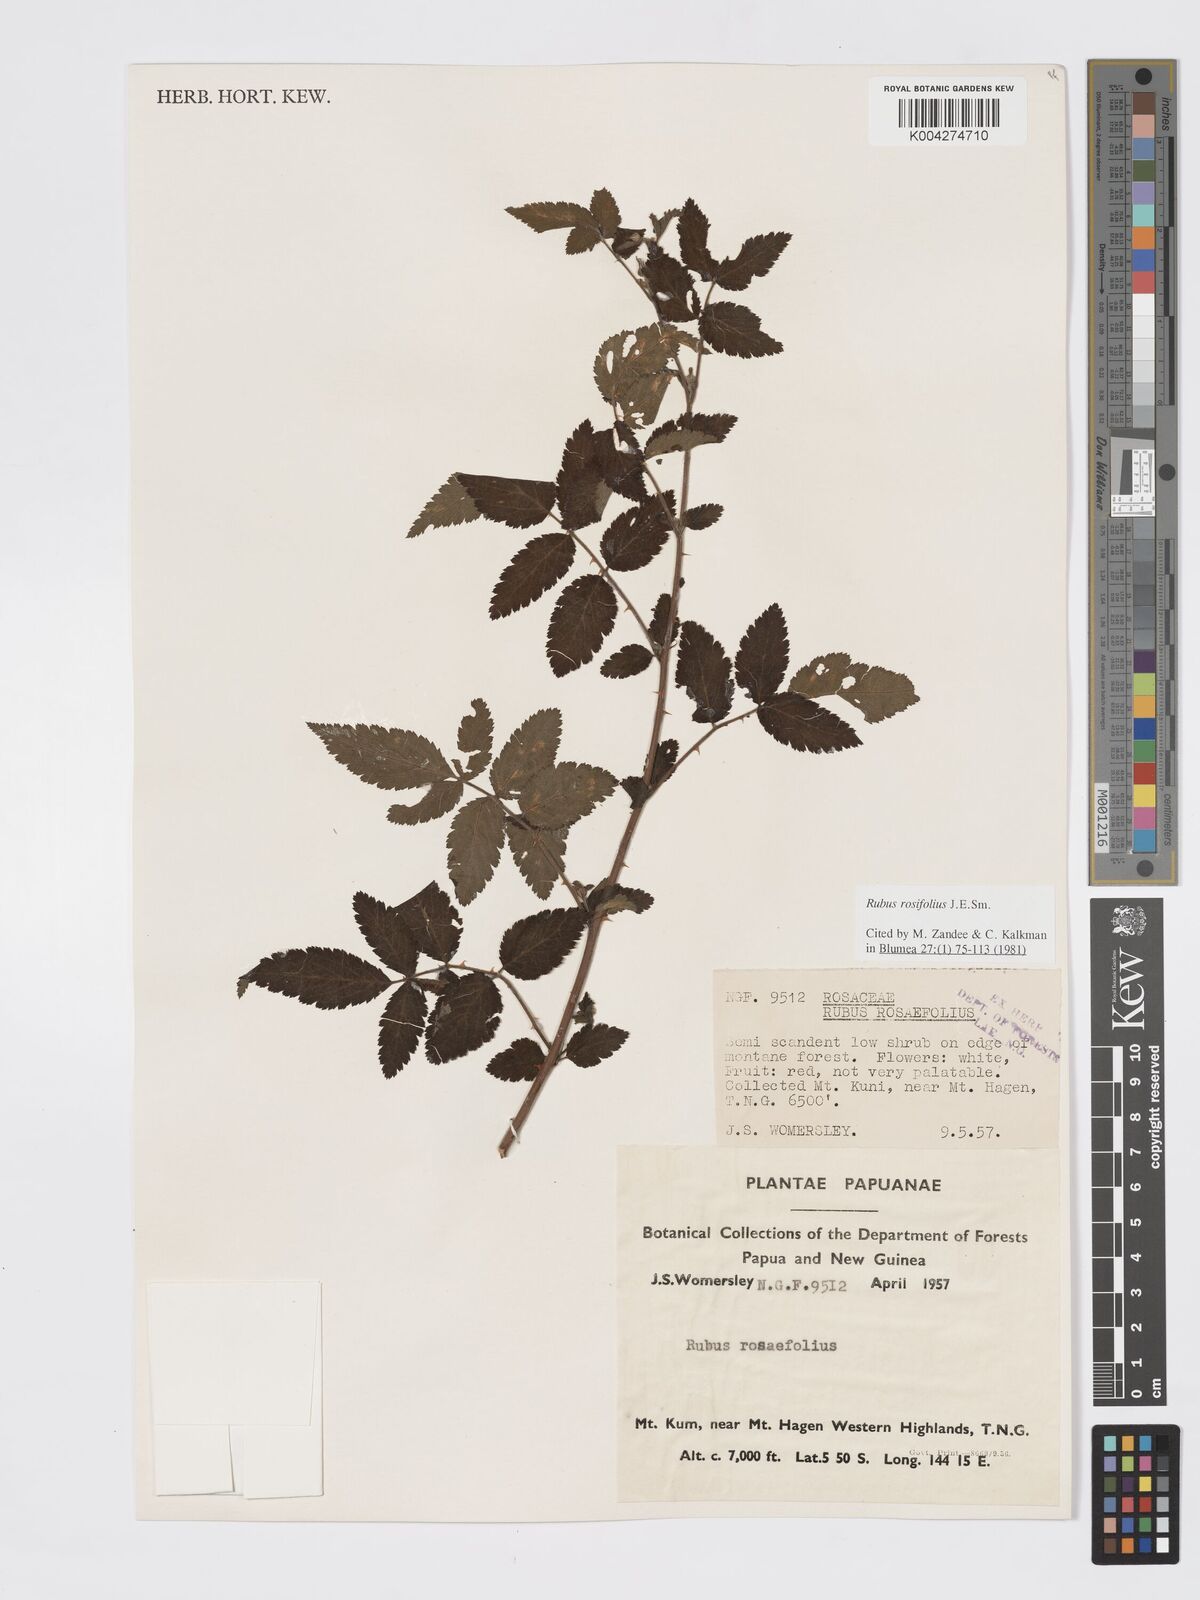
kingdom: Plantae
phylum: Tracheophyta
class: Magnoliopsida
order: Rosales
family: Rosaceae
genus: Rubus
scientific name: Rubus
